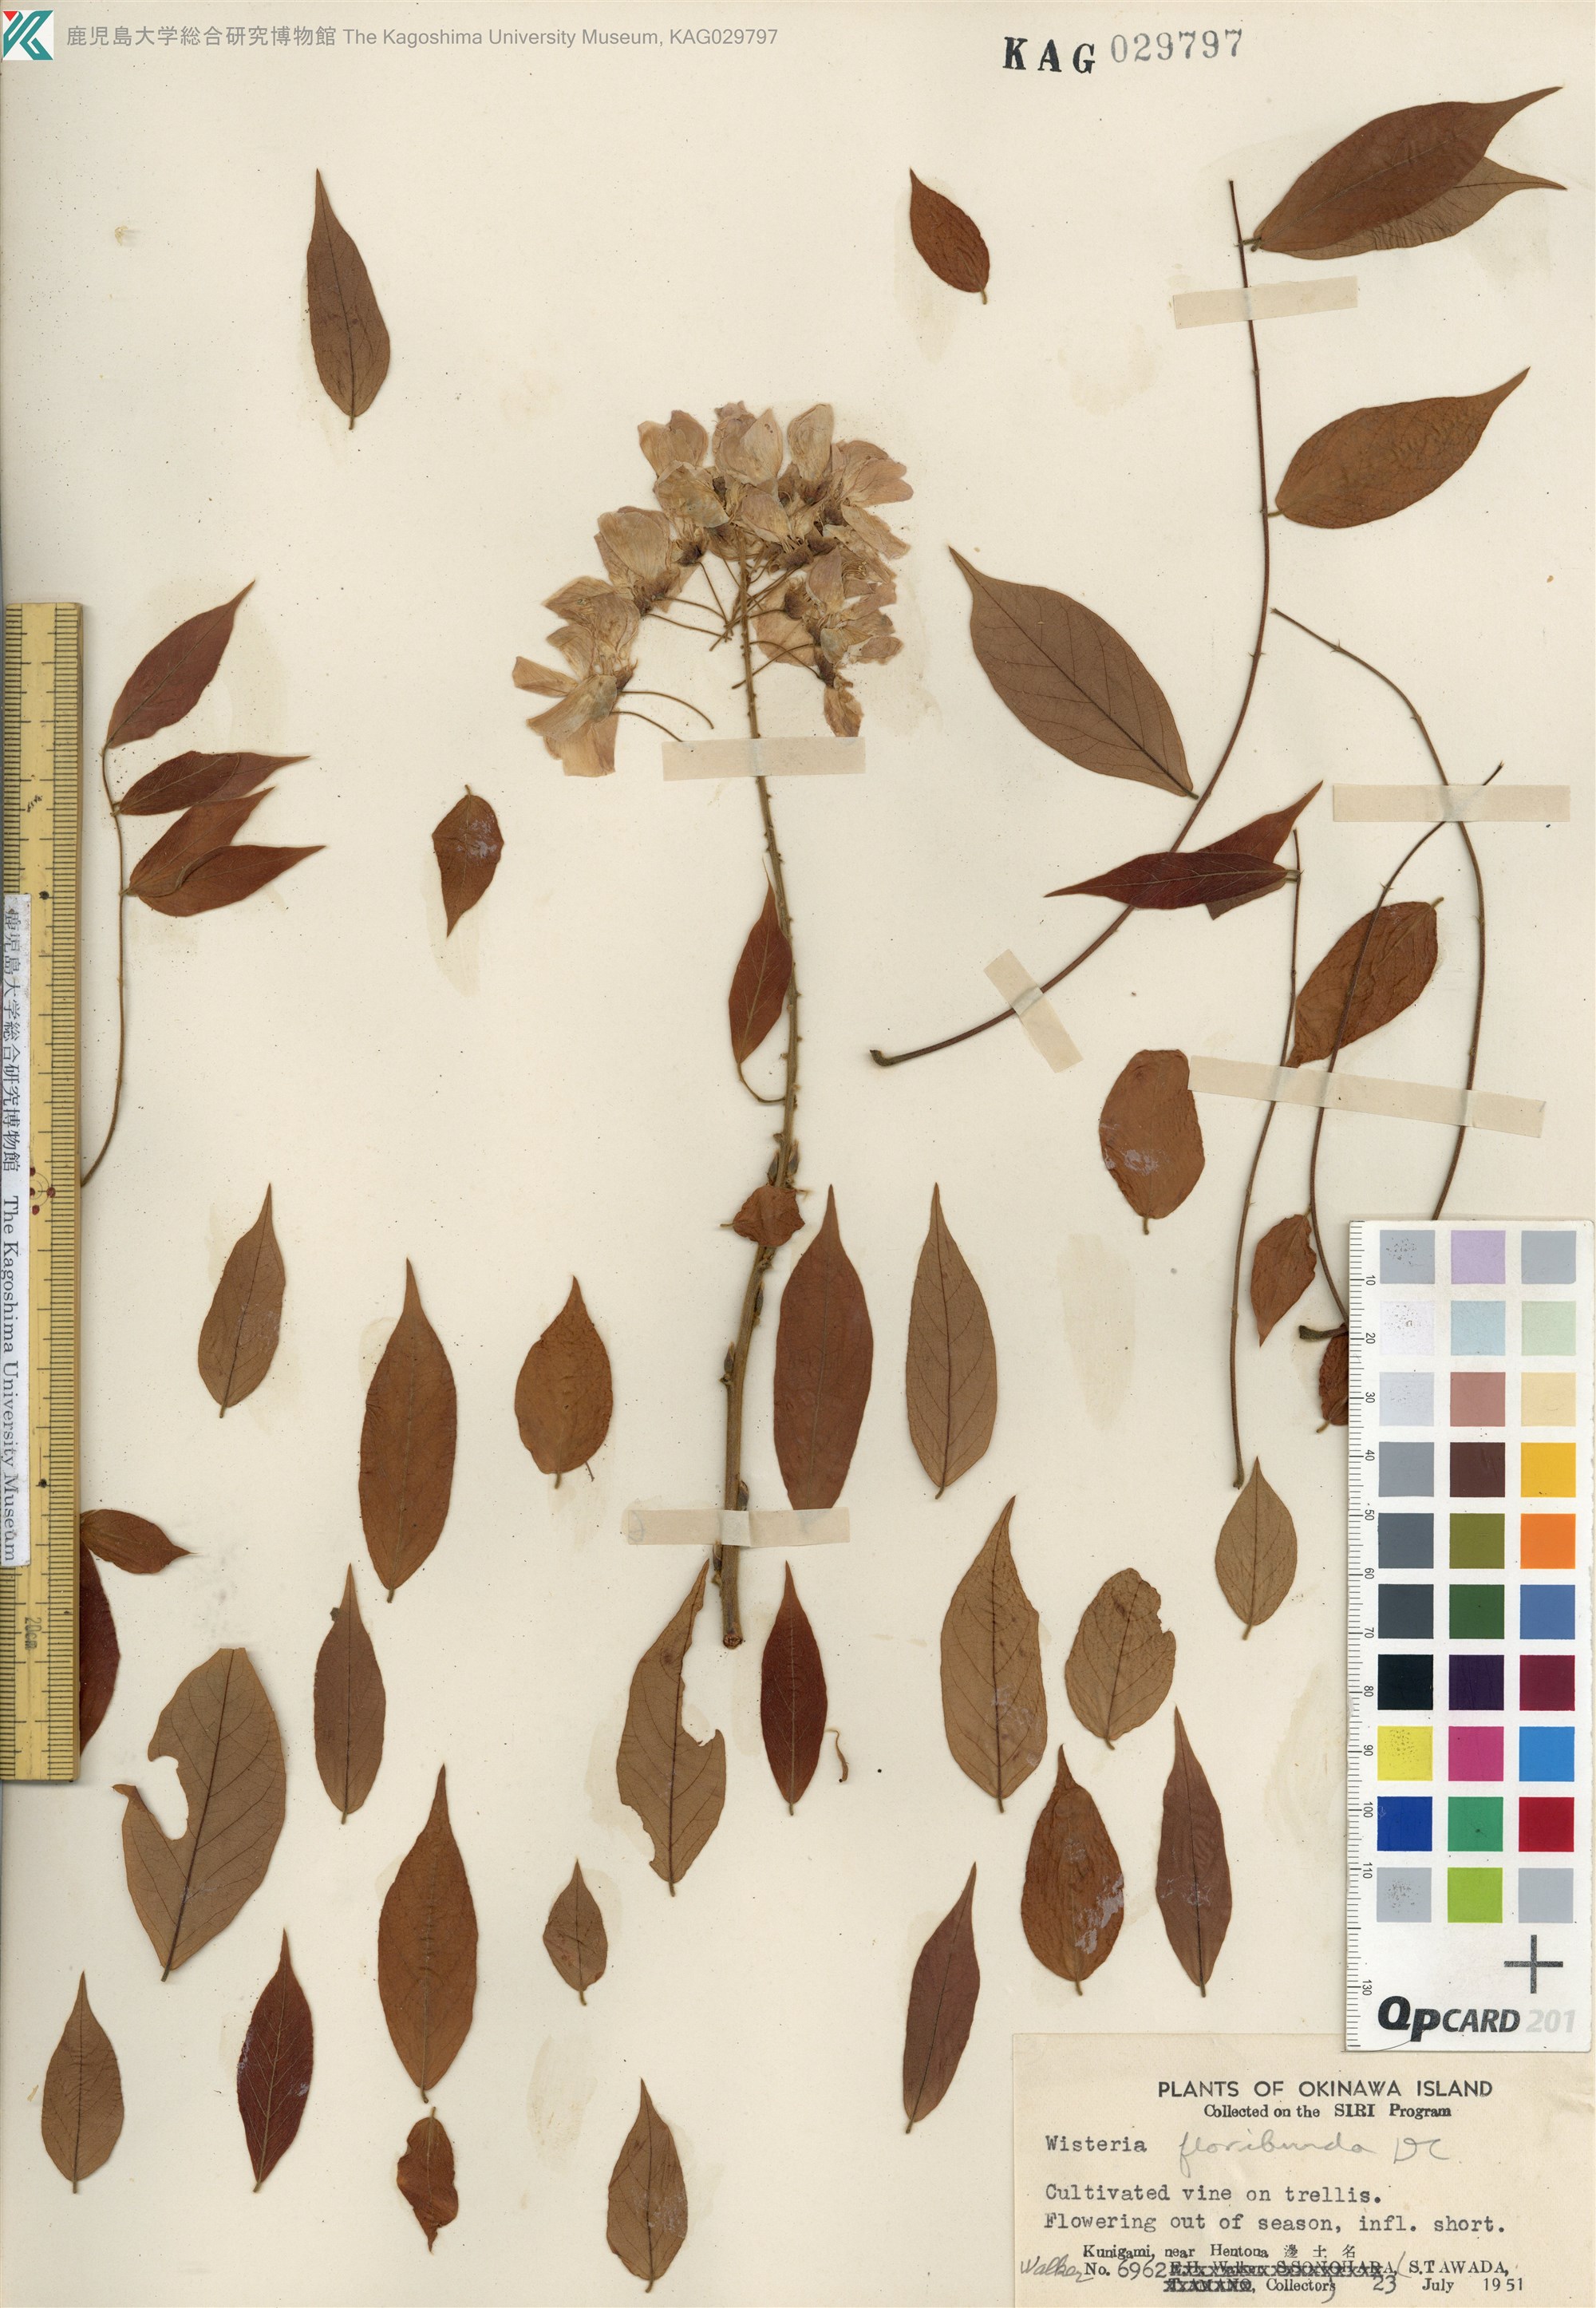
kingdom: Plantae
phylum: Tracheophyta
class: Magnoliopsida
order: Fabales
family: Fabaceae
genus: Wisteria
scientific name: Wisteria floribunda
